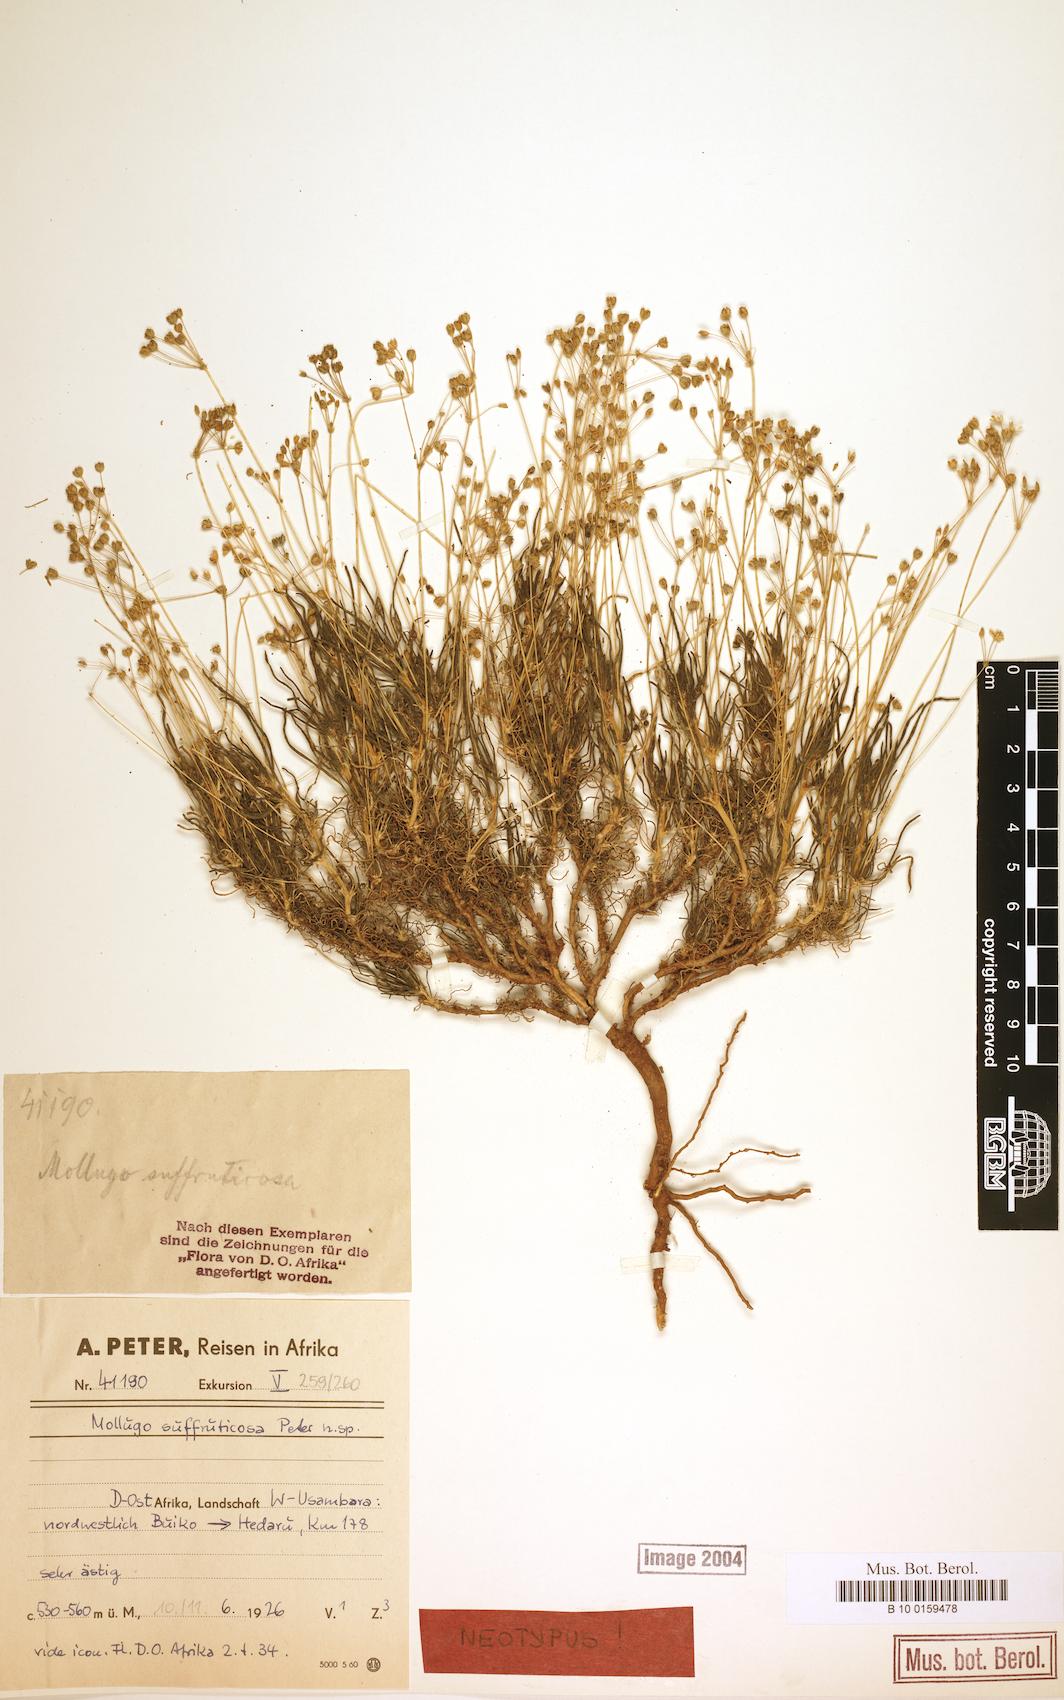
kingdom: Plantae
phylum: Tracheophyta
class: Magnoliopsida
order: Caryophyllales
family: Molluginaceae
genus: Mollugo
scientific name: Mollugo subruticosa
